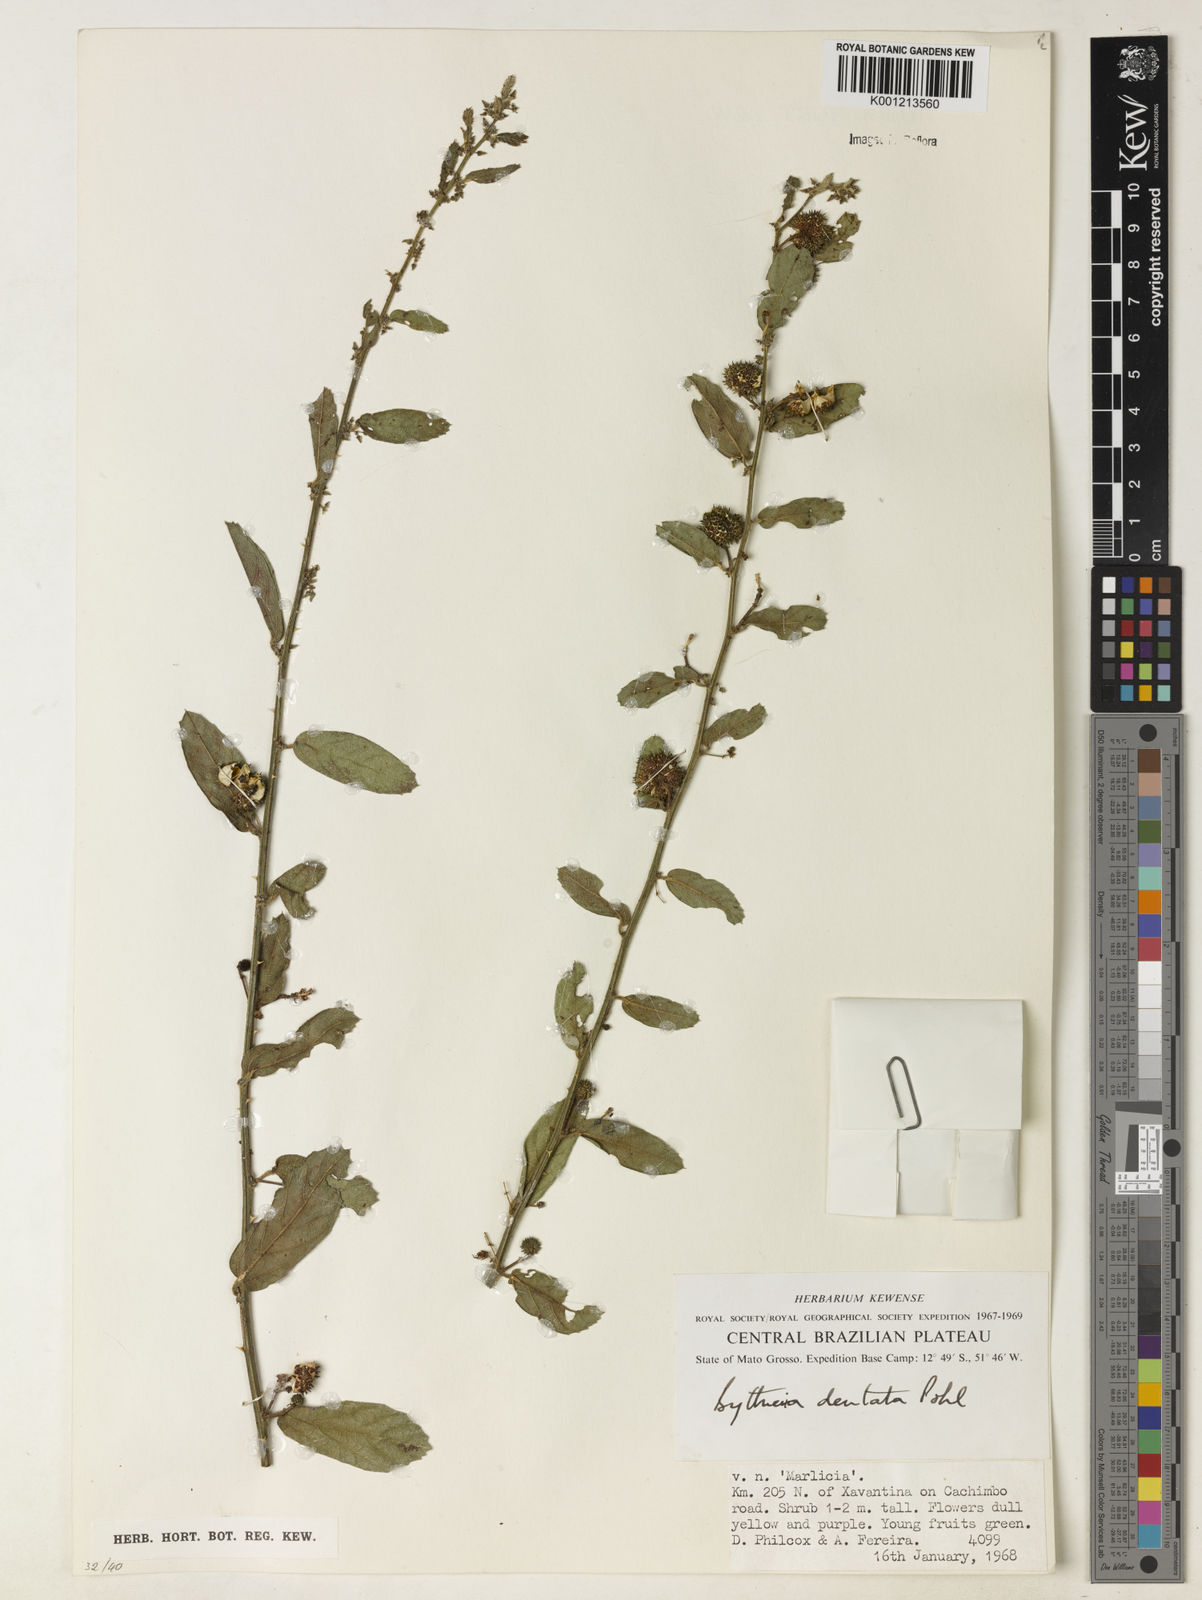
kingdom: Plantae
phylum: Tracheophyta
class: Magnoliopsida
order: Malvales
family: Malvaceae
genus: Byttneria
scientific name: Byttneria
